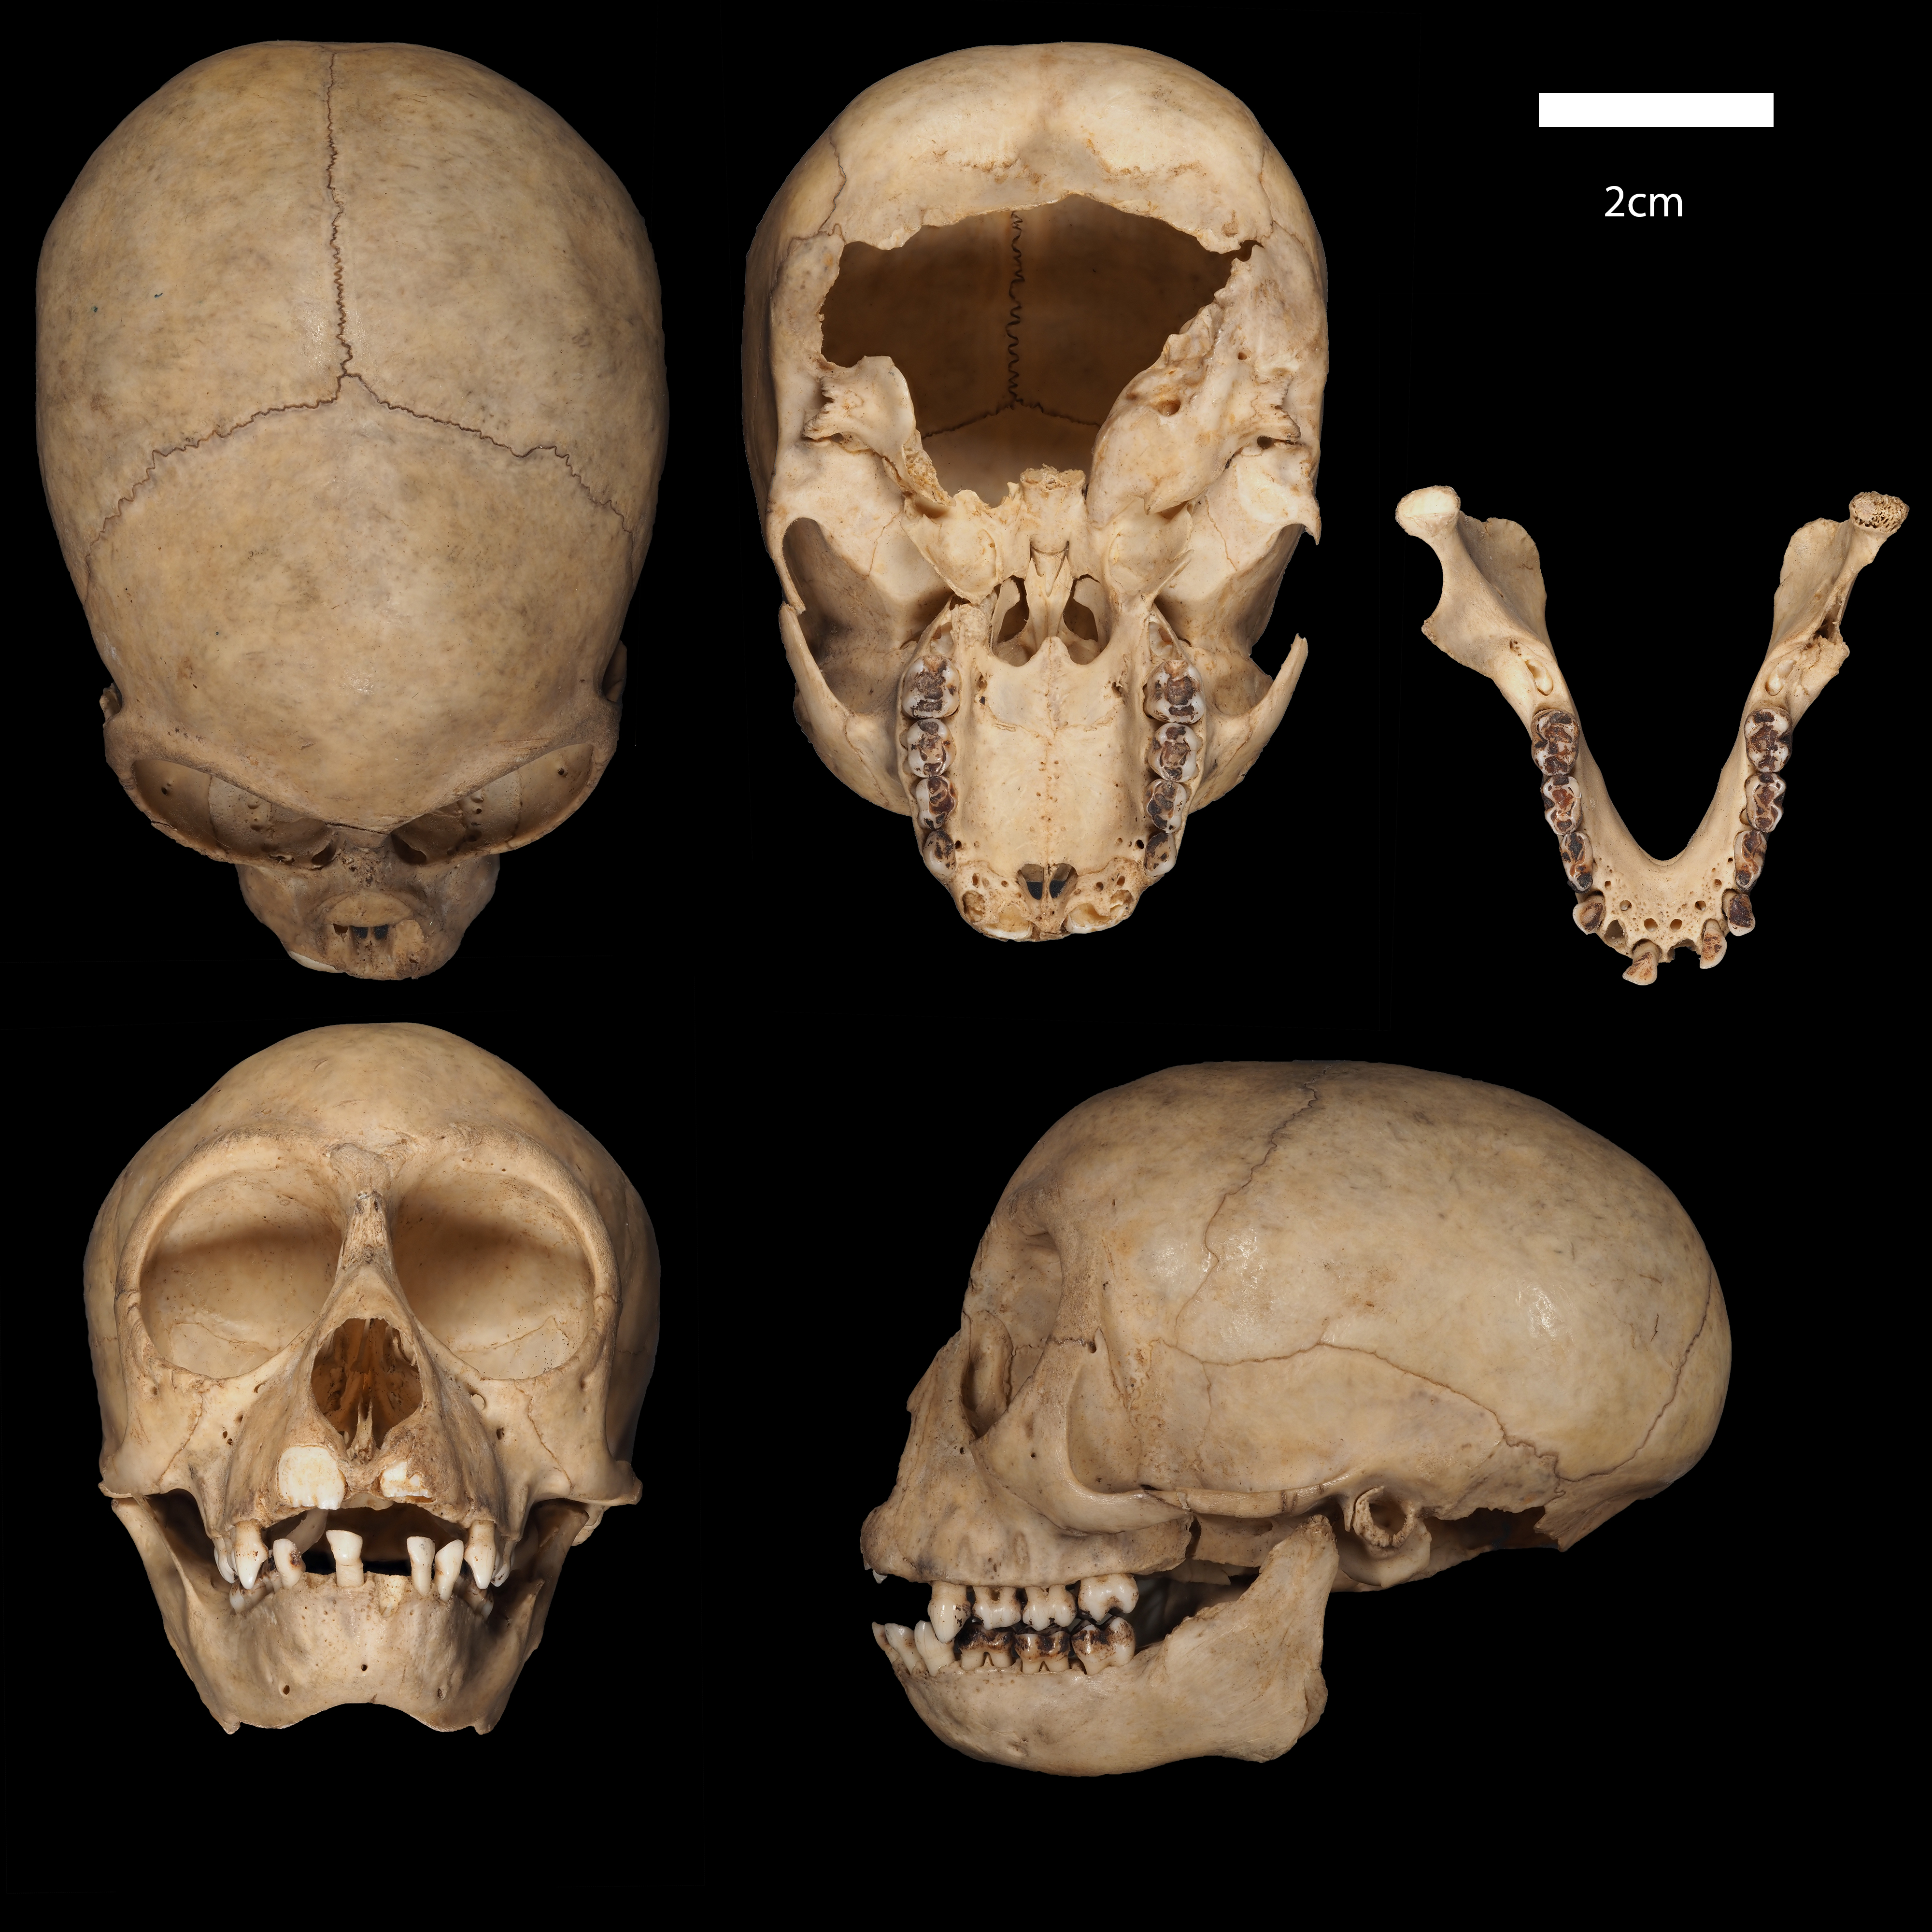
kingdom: Animalia
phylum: Chordata
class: Mammalia
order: Primates
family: Cercopithecidae
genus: Cercopithecus
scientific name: Cercopithecus
